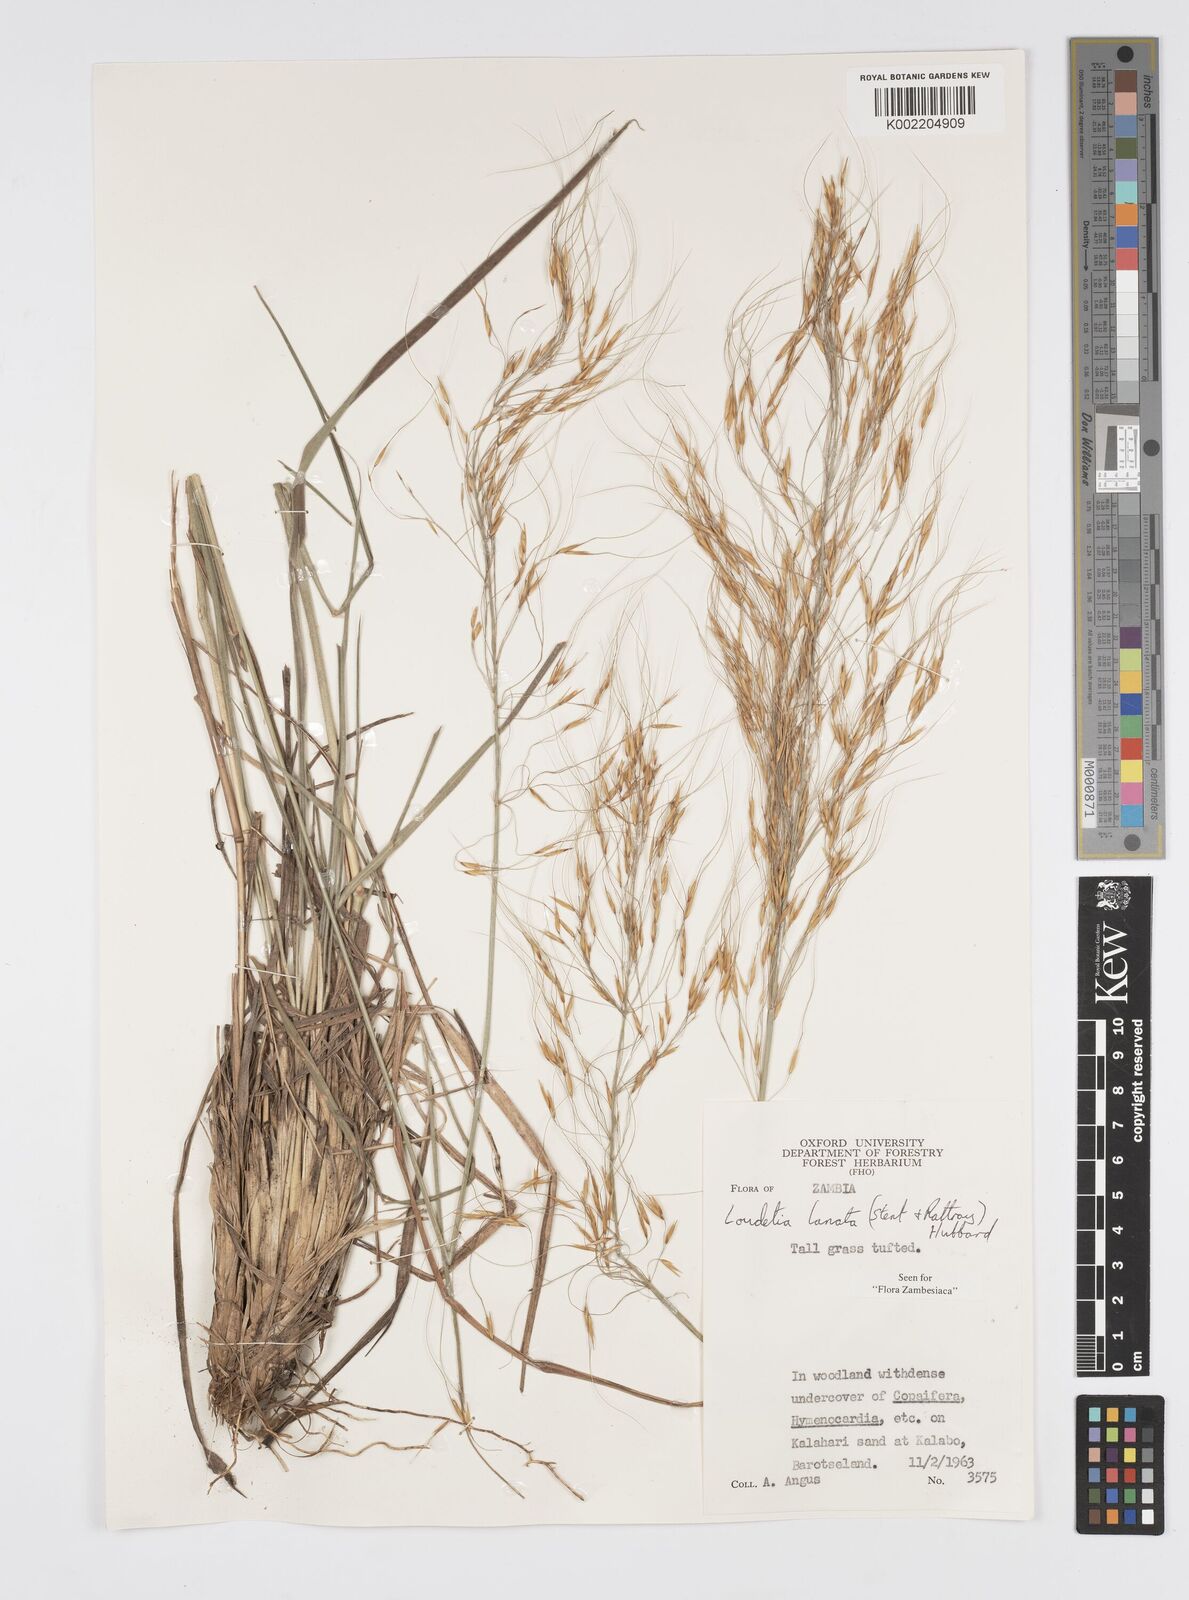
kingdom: Plantae
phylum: Tracheophyta
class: Liliopsida
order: Poales
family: Poaceae
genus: Loudetia
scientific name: Loudetia lanata
